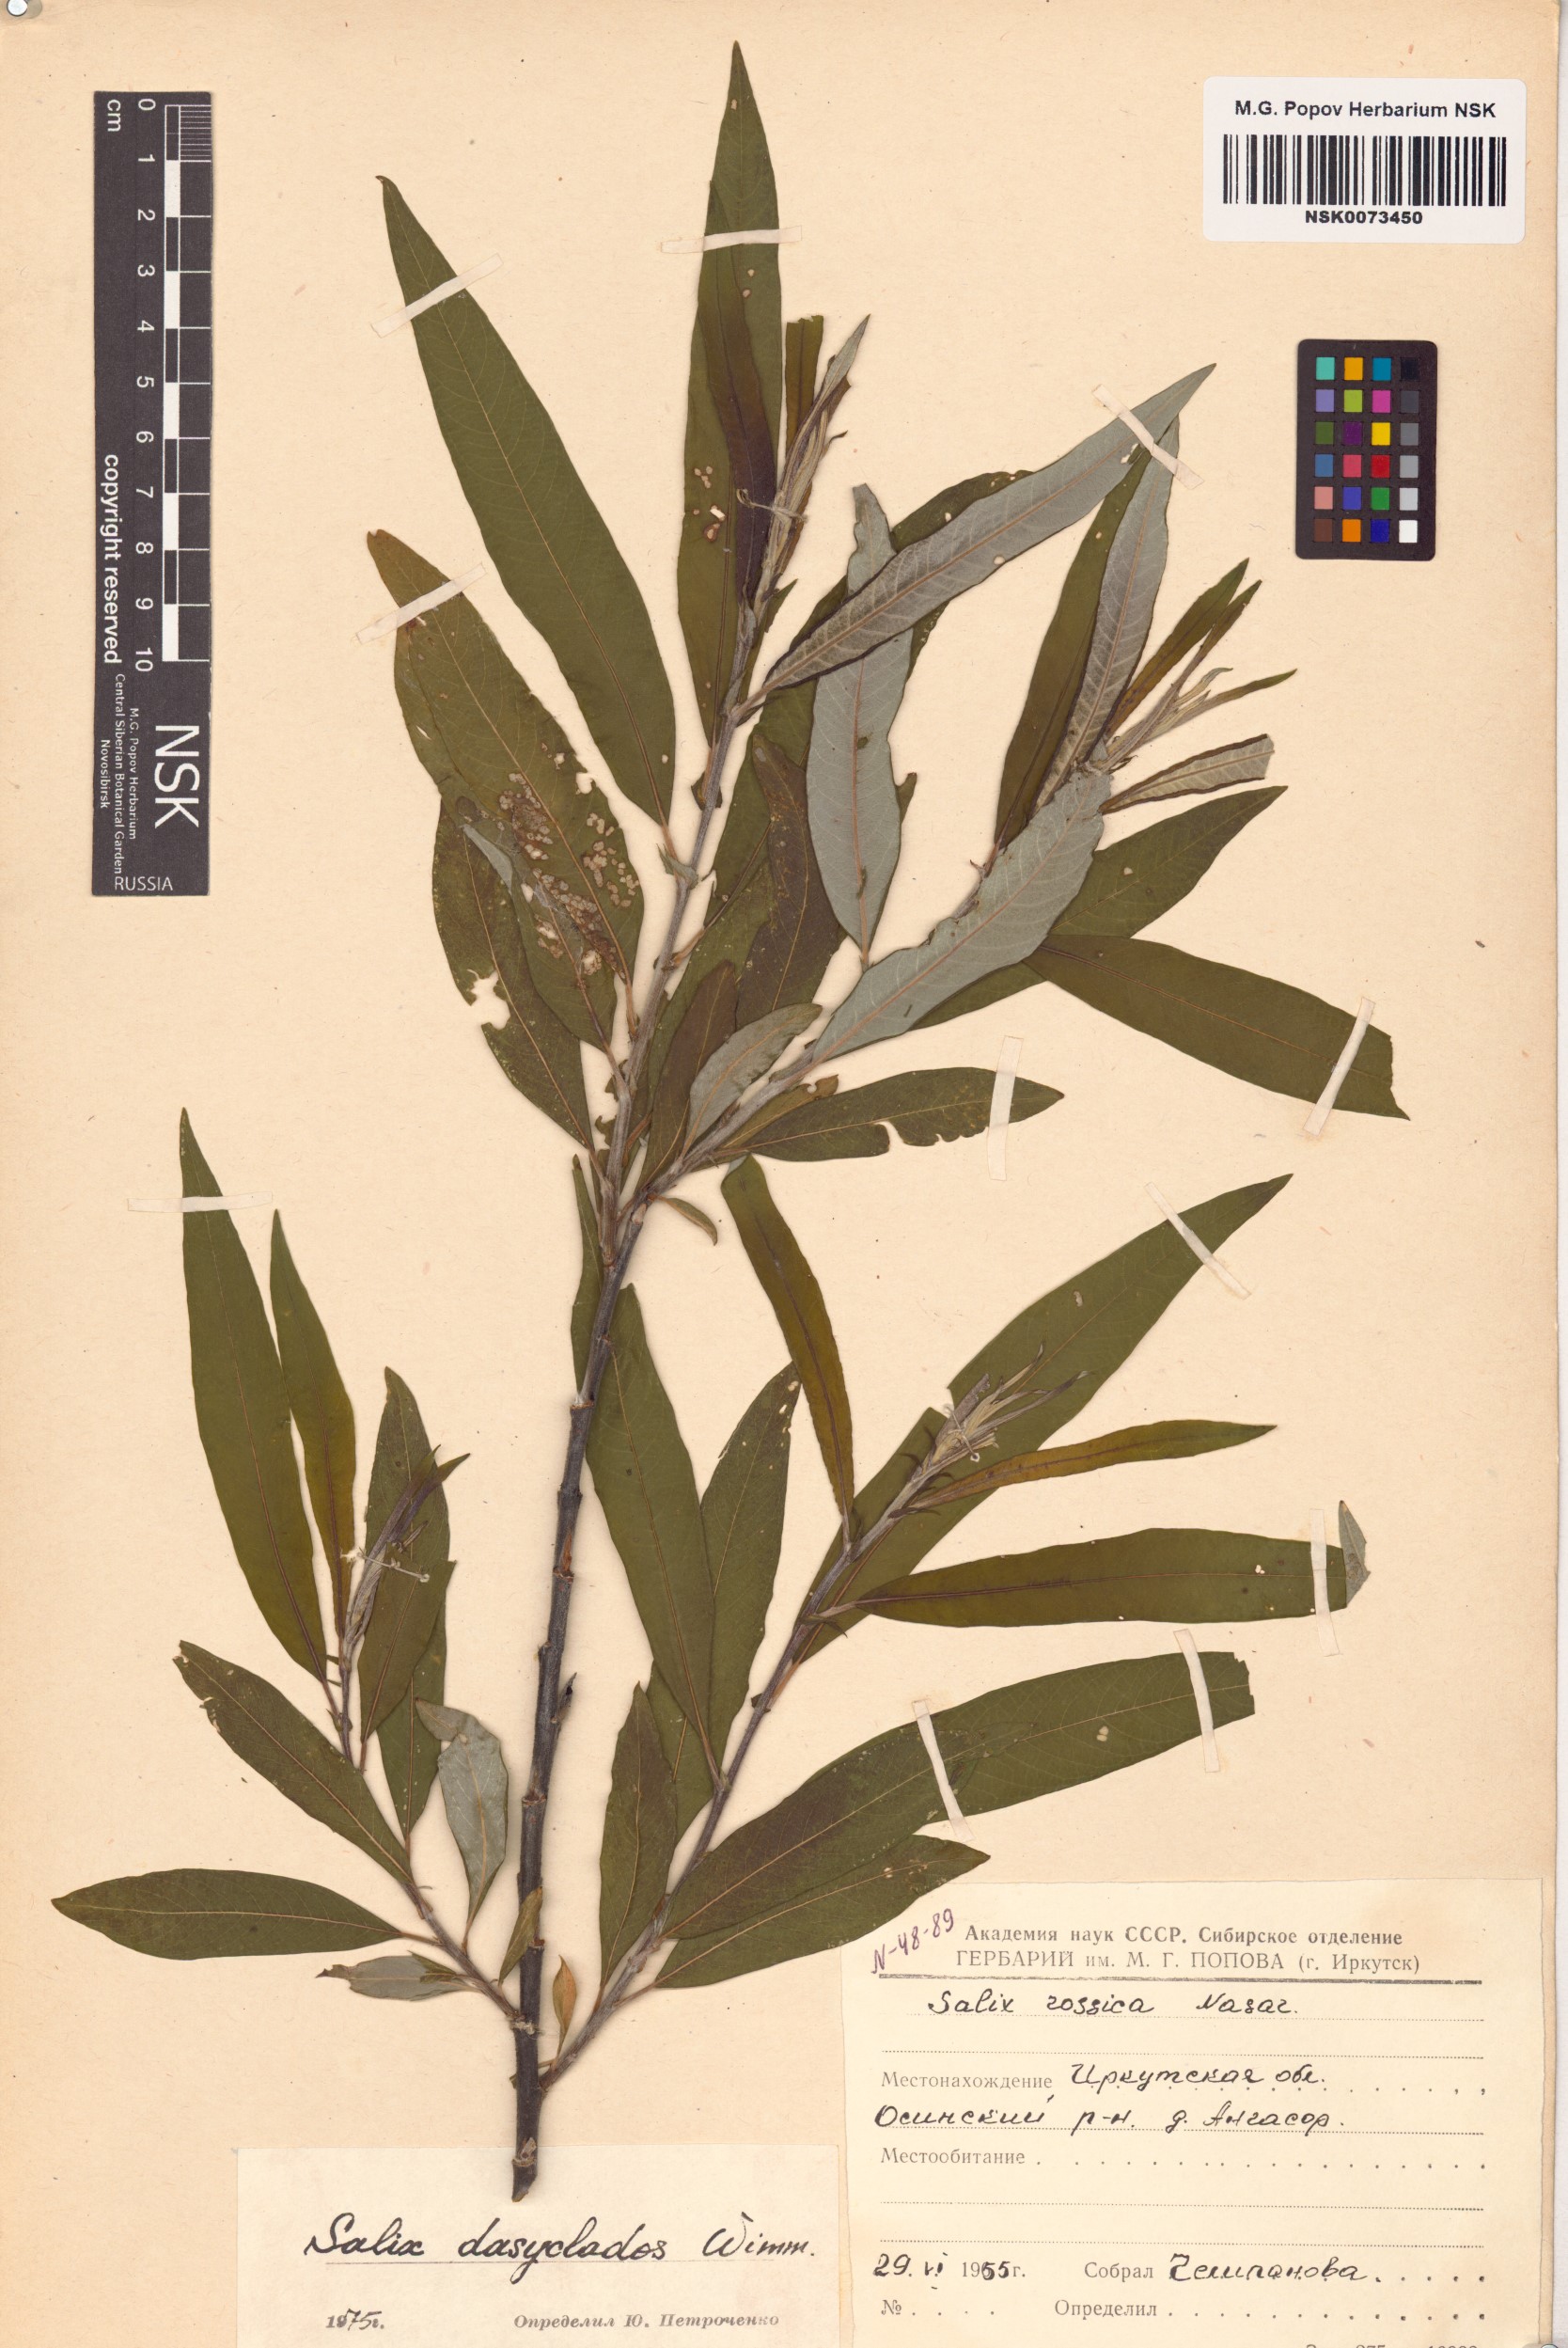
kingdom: Plantae
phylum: Tracheophyta
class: Magnoliopsida
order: Malpighiales
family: Salicaceae
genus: Salix
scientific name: Salix gmelinii
